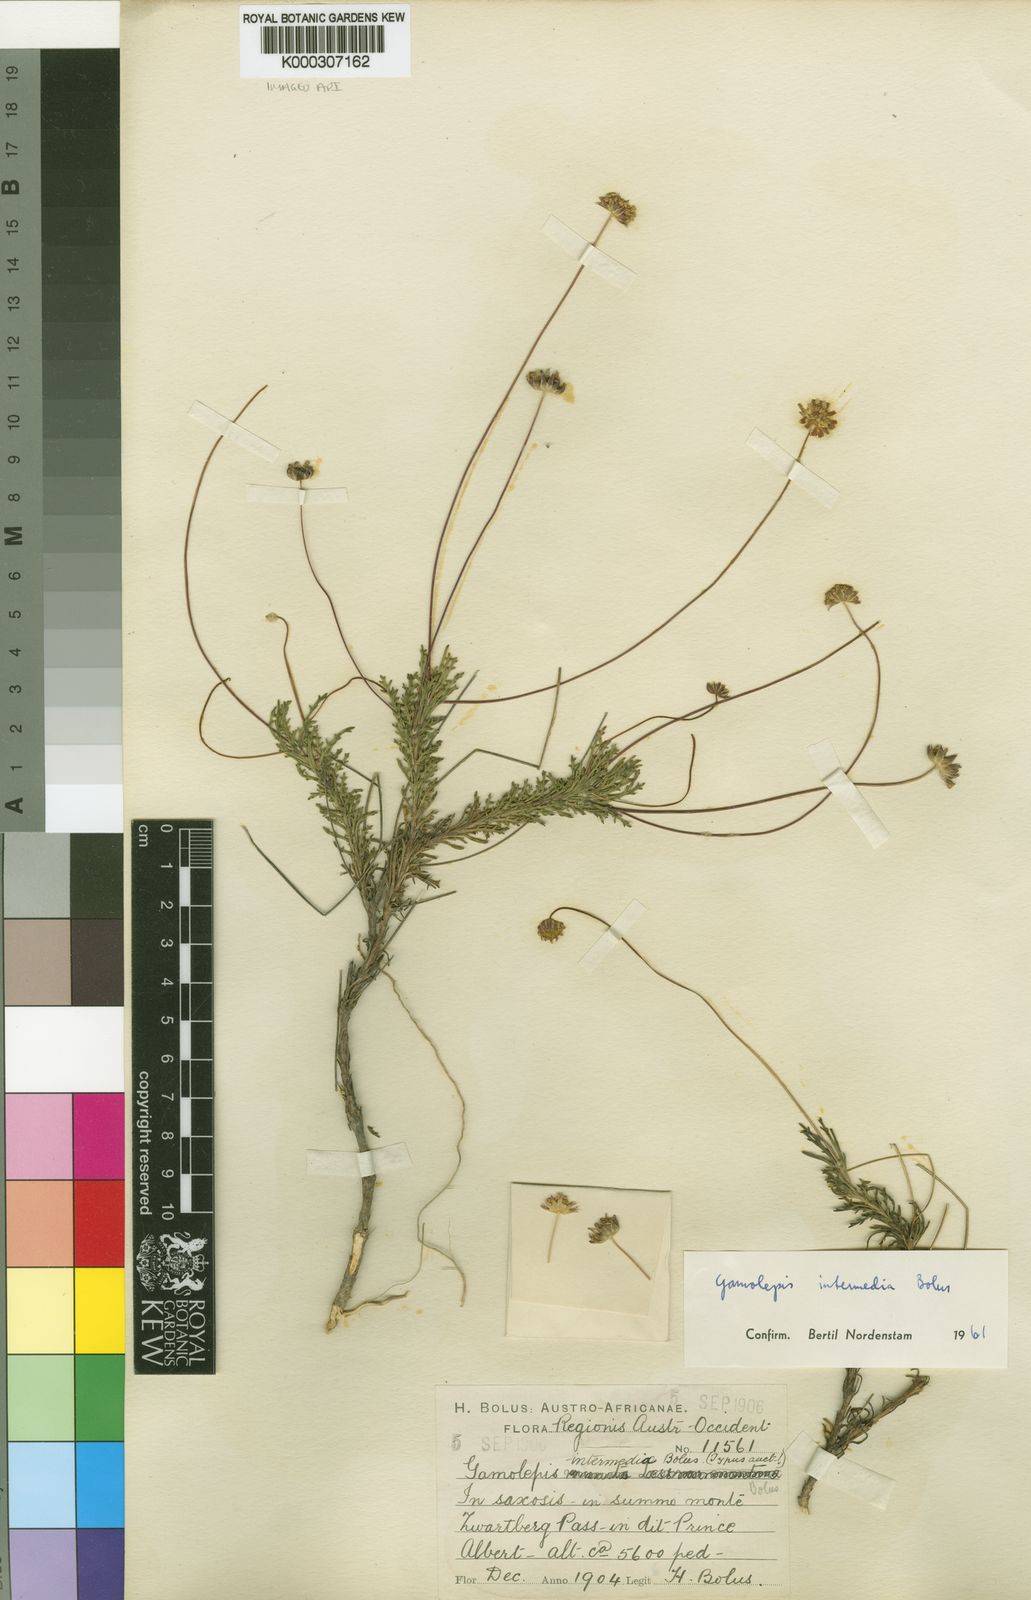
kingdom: Plantae
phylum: Tracheophyta
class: Magnoliopsida
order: Asterales
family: Asteraceae
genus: Euryops
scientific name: Euryops bolusii
